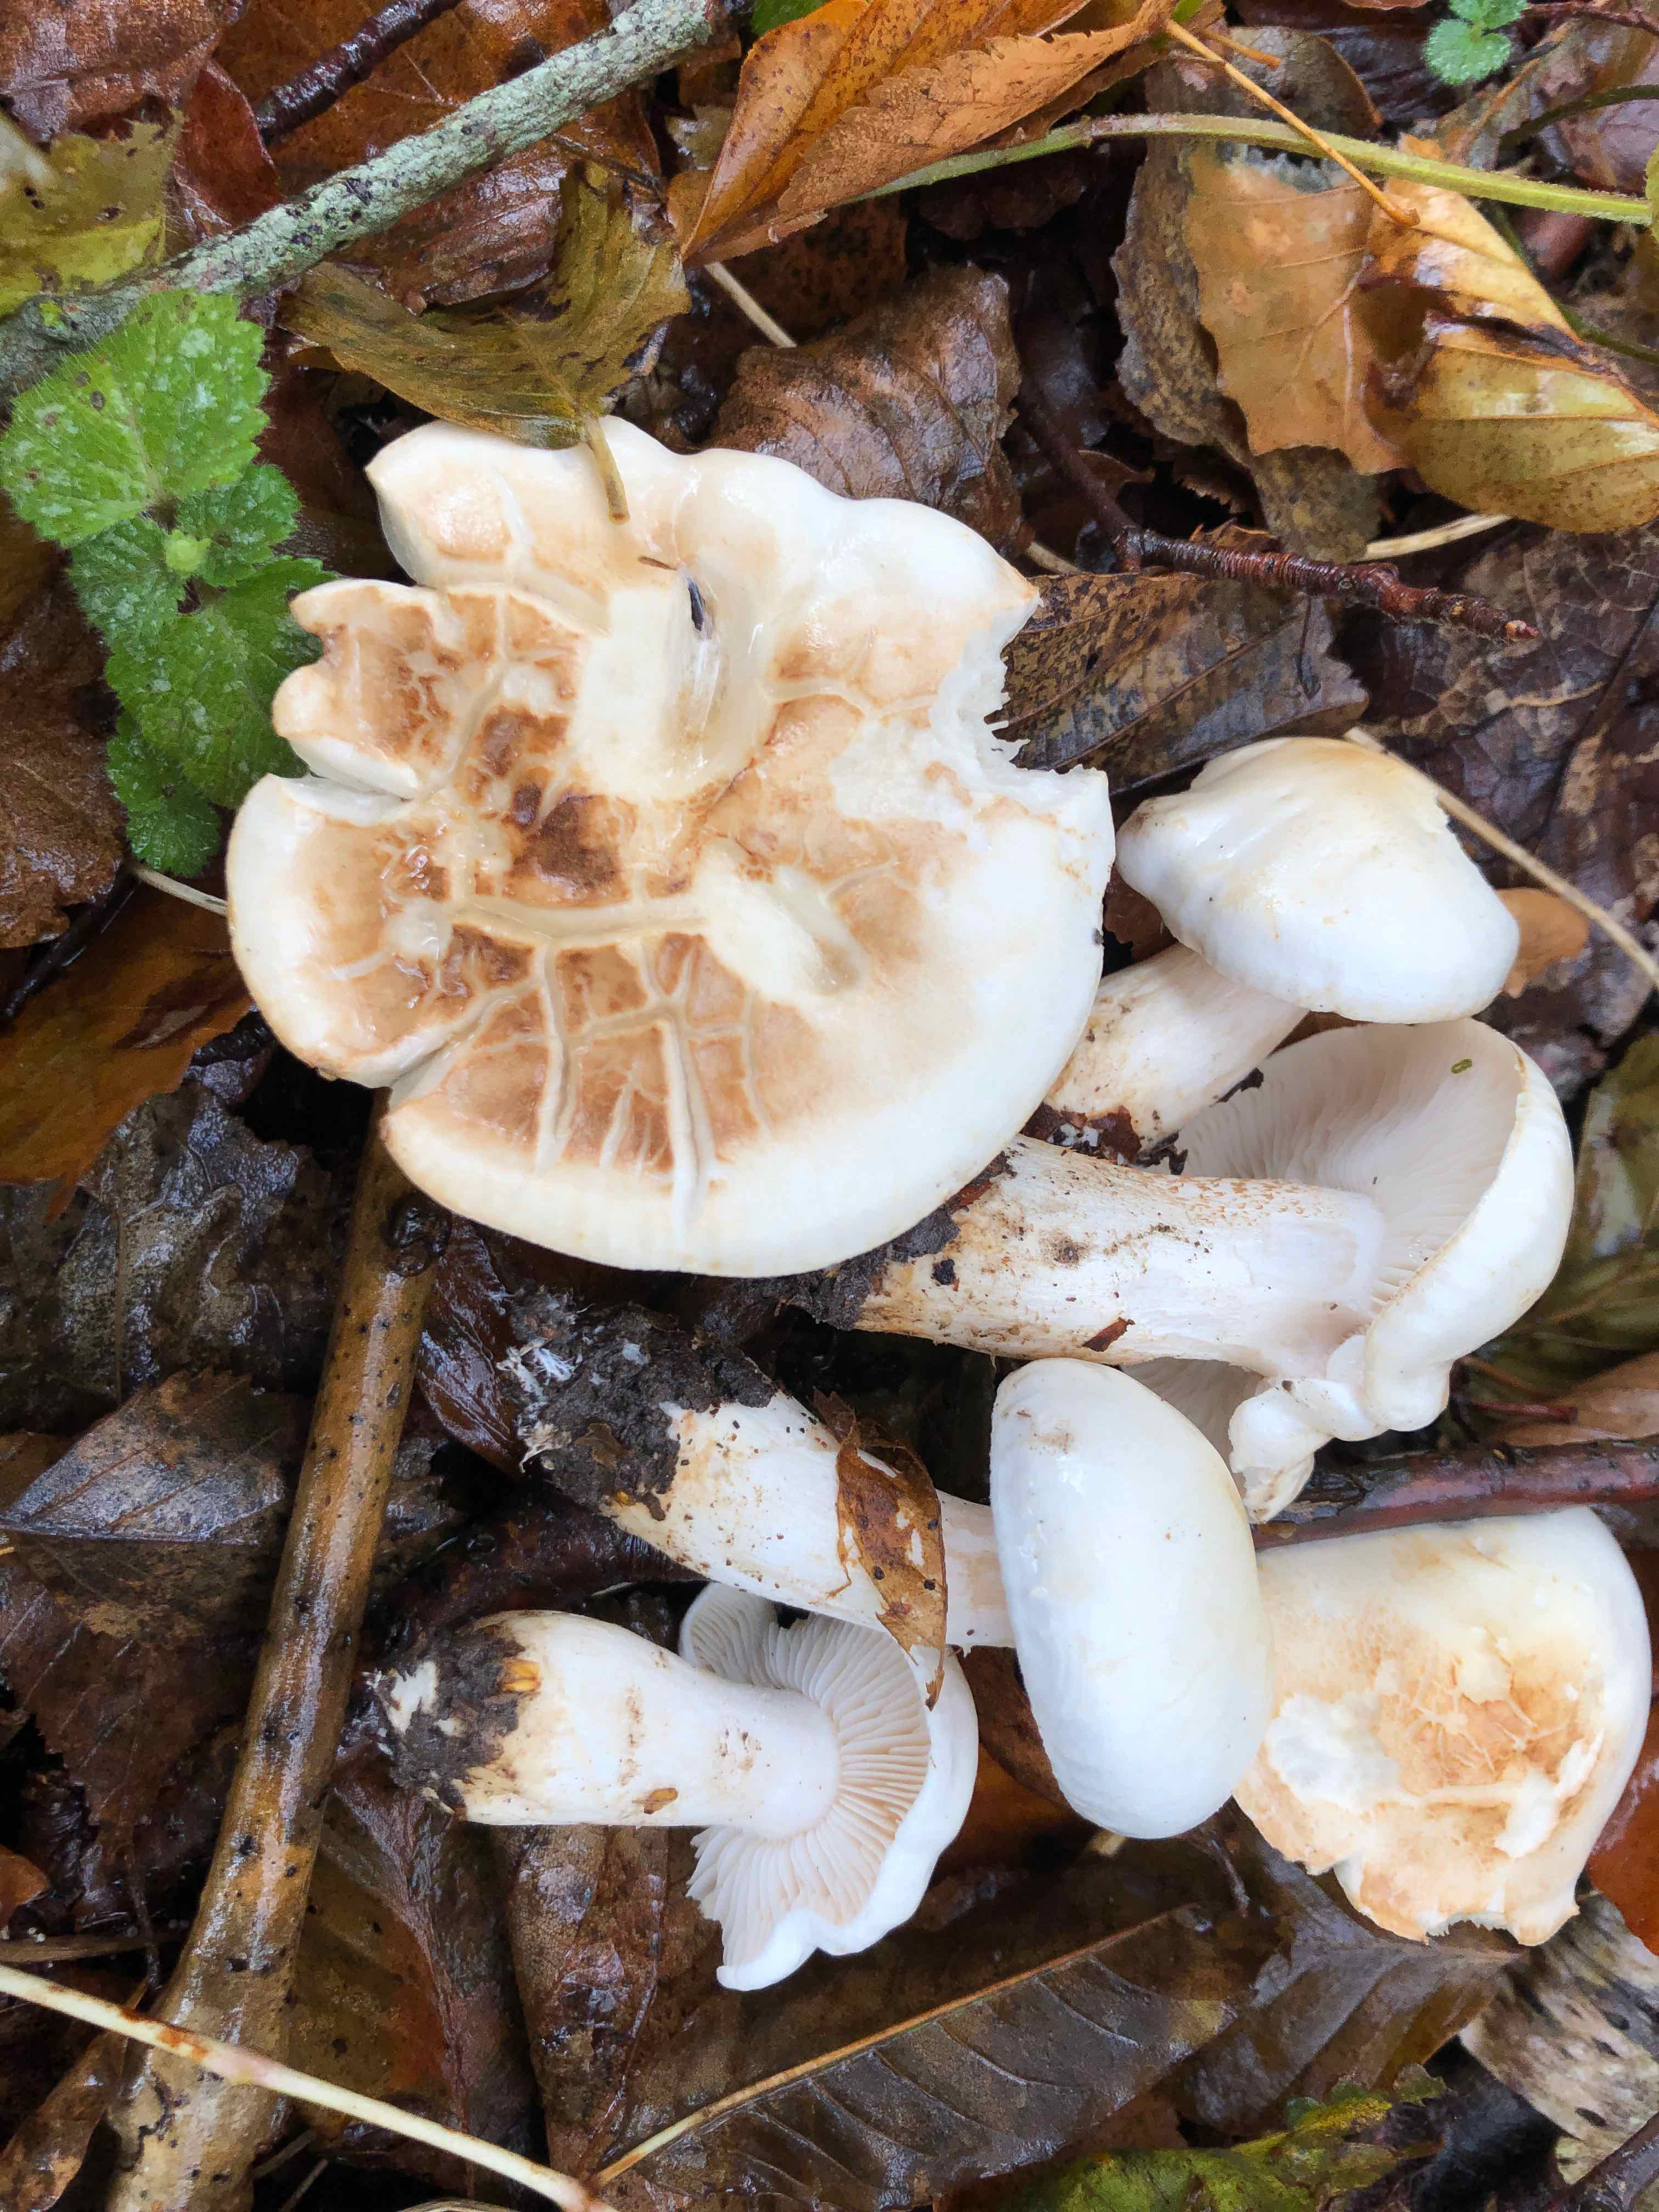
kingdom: Fungi
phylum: Basidiomycota
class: Agaricomycetes
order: Agaricales
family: Tricholomataceae
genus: Tricholoma
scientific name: Tricholoma stiparophyllum
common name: hvid ridderhat
